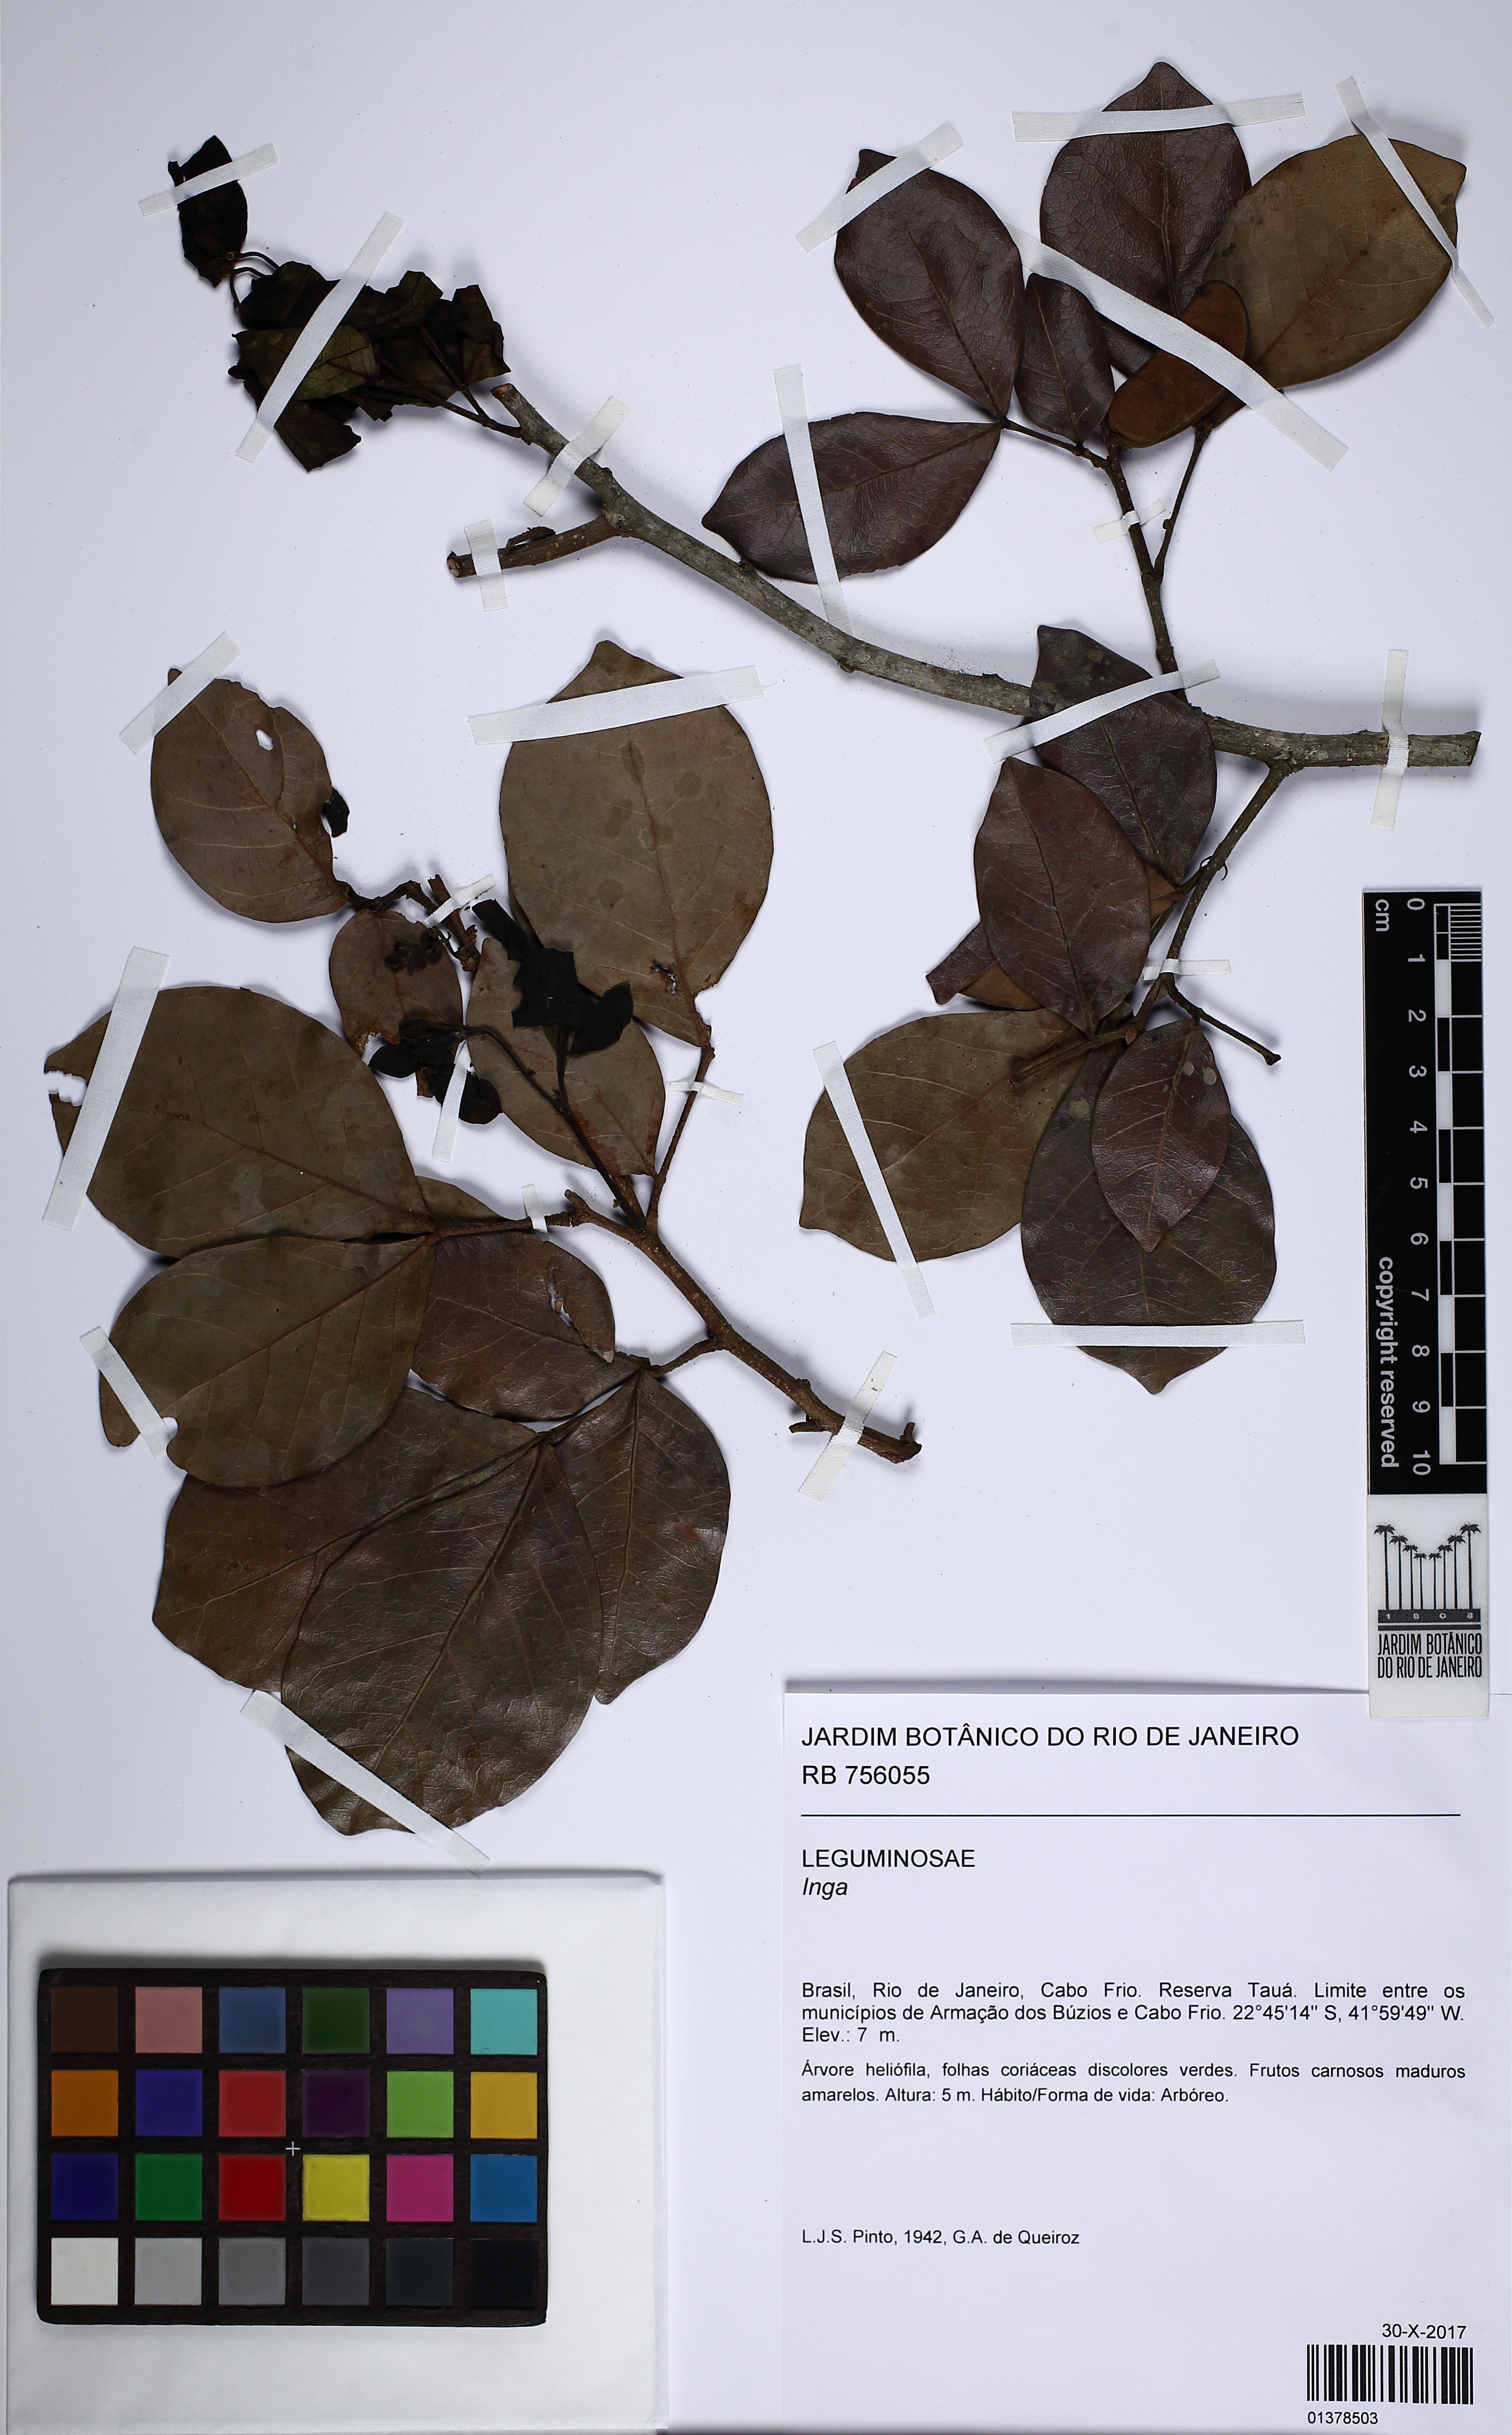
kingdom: Plantae
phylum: Tracheophyta
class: Magnoliopsida
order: Fabales
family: Fabaceae
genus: Inga
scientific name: Inga
